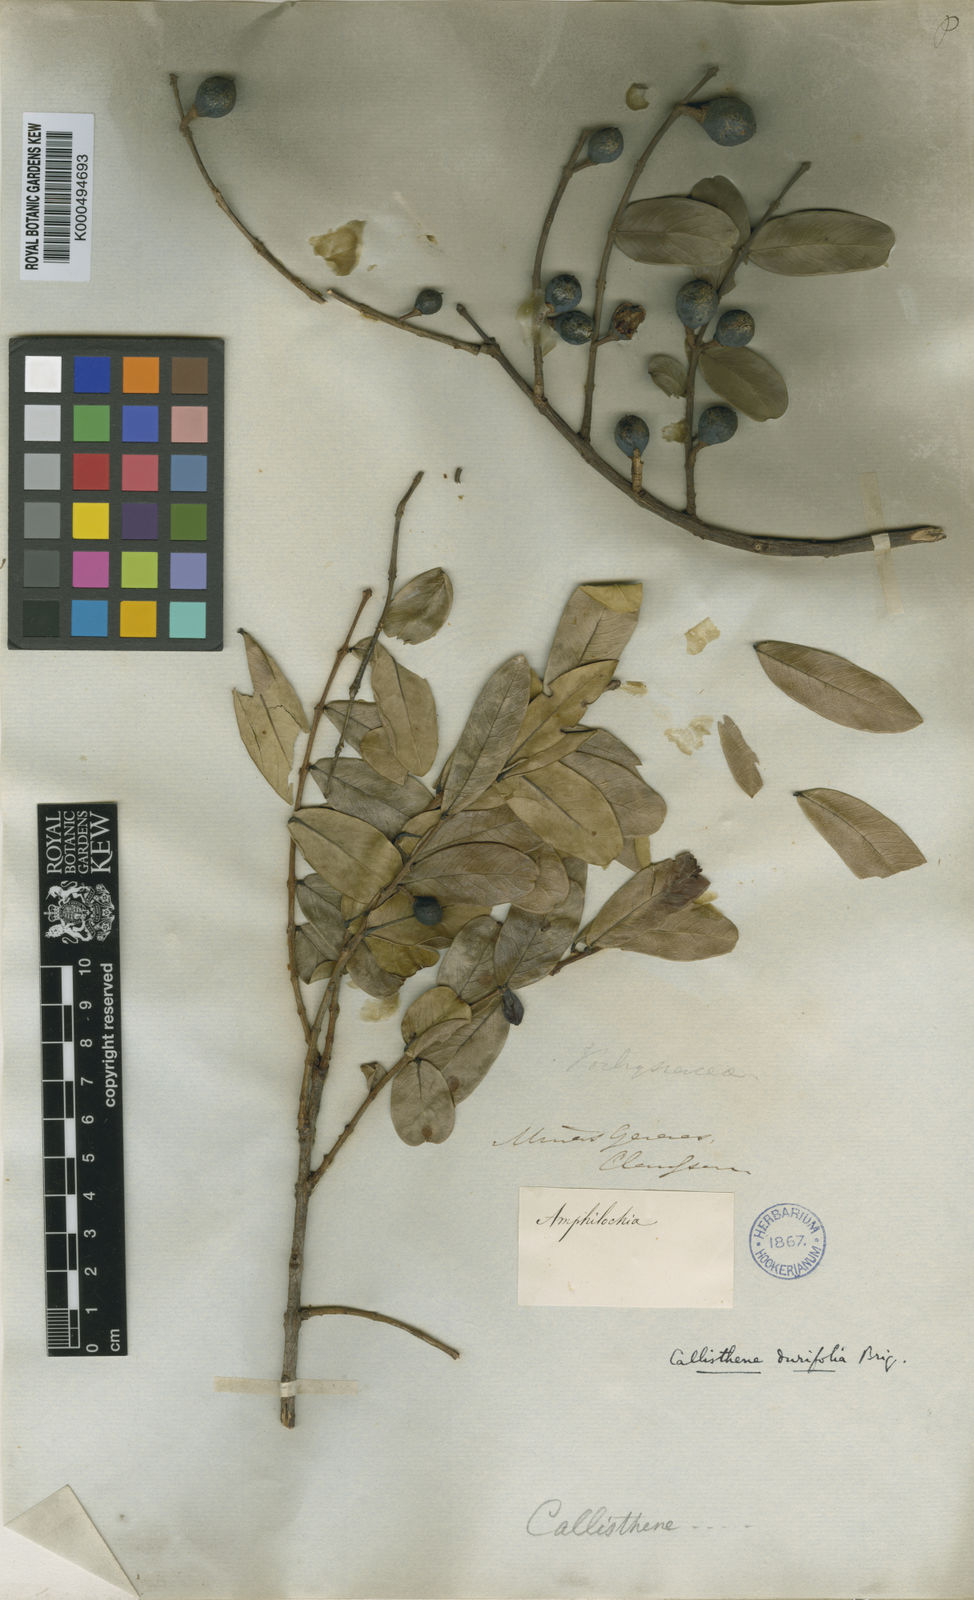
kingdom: Plantae
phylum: Tracheophyta
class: Magnoliopsida
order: Myrtales
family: Vochysiaceae
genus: Callisthene
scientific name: Callisthene major
